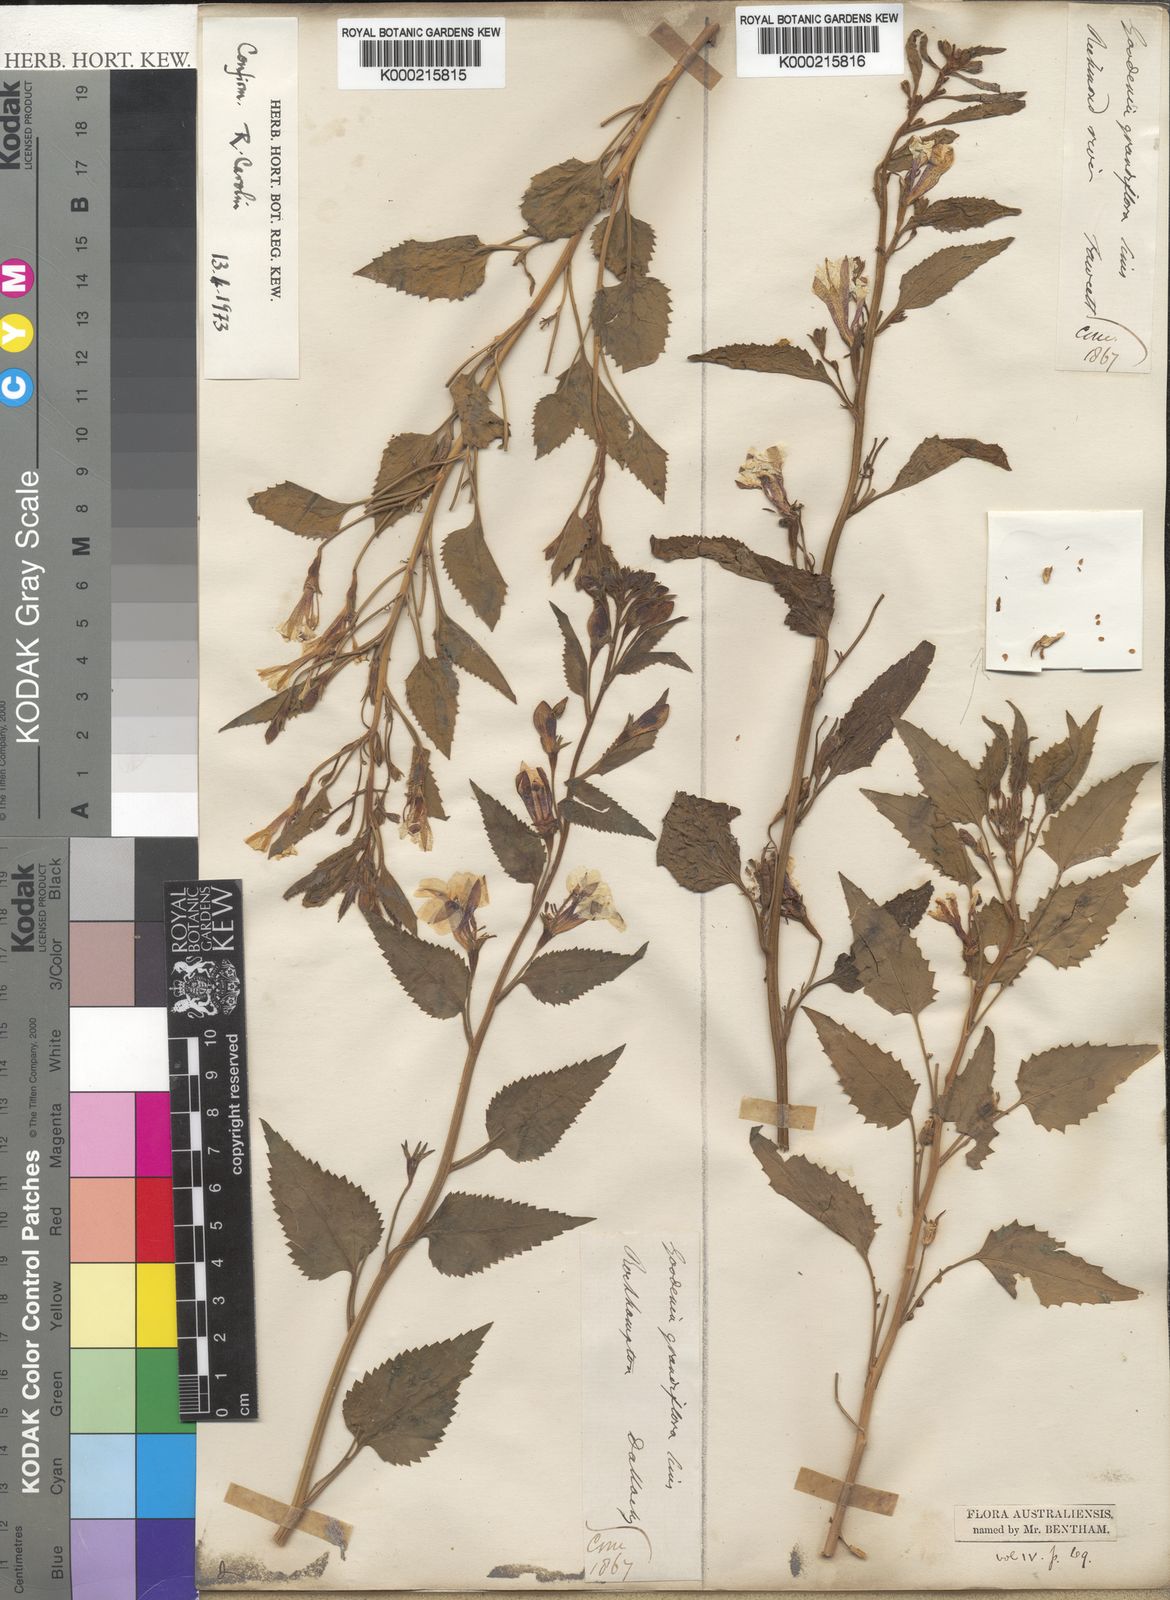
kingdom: Plantae
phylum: Tracheophyta
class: Magnoliopsida
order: Asterales
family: Goodeniaceae
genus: Goodenia
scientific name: Goodenia
